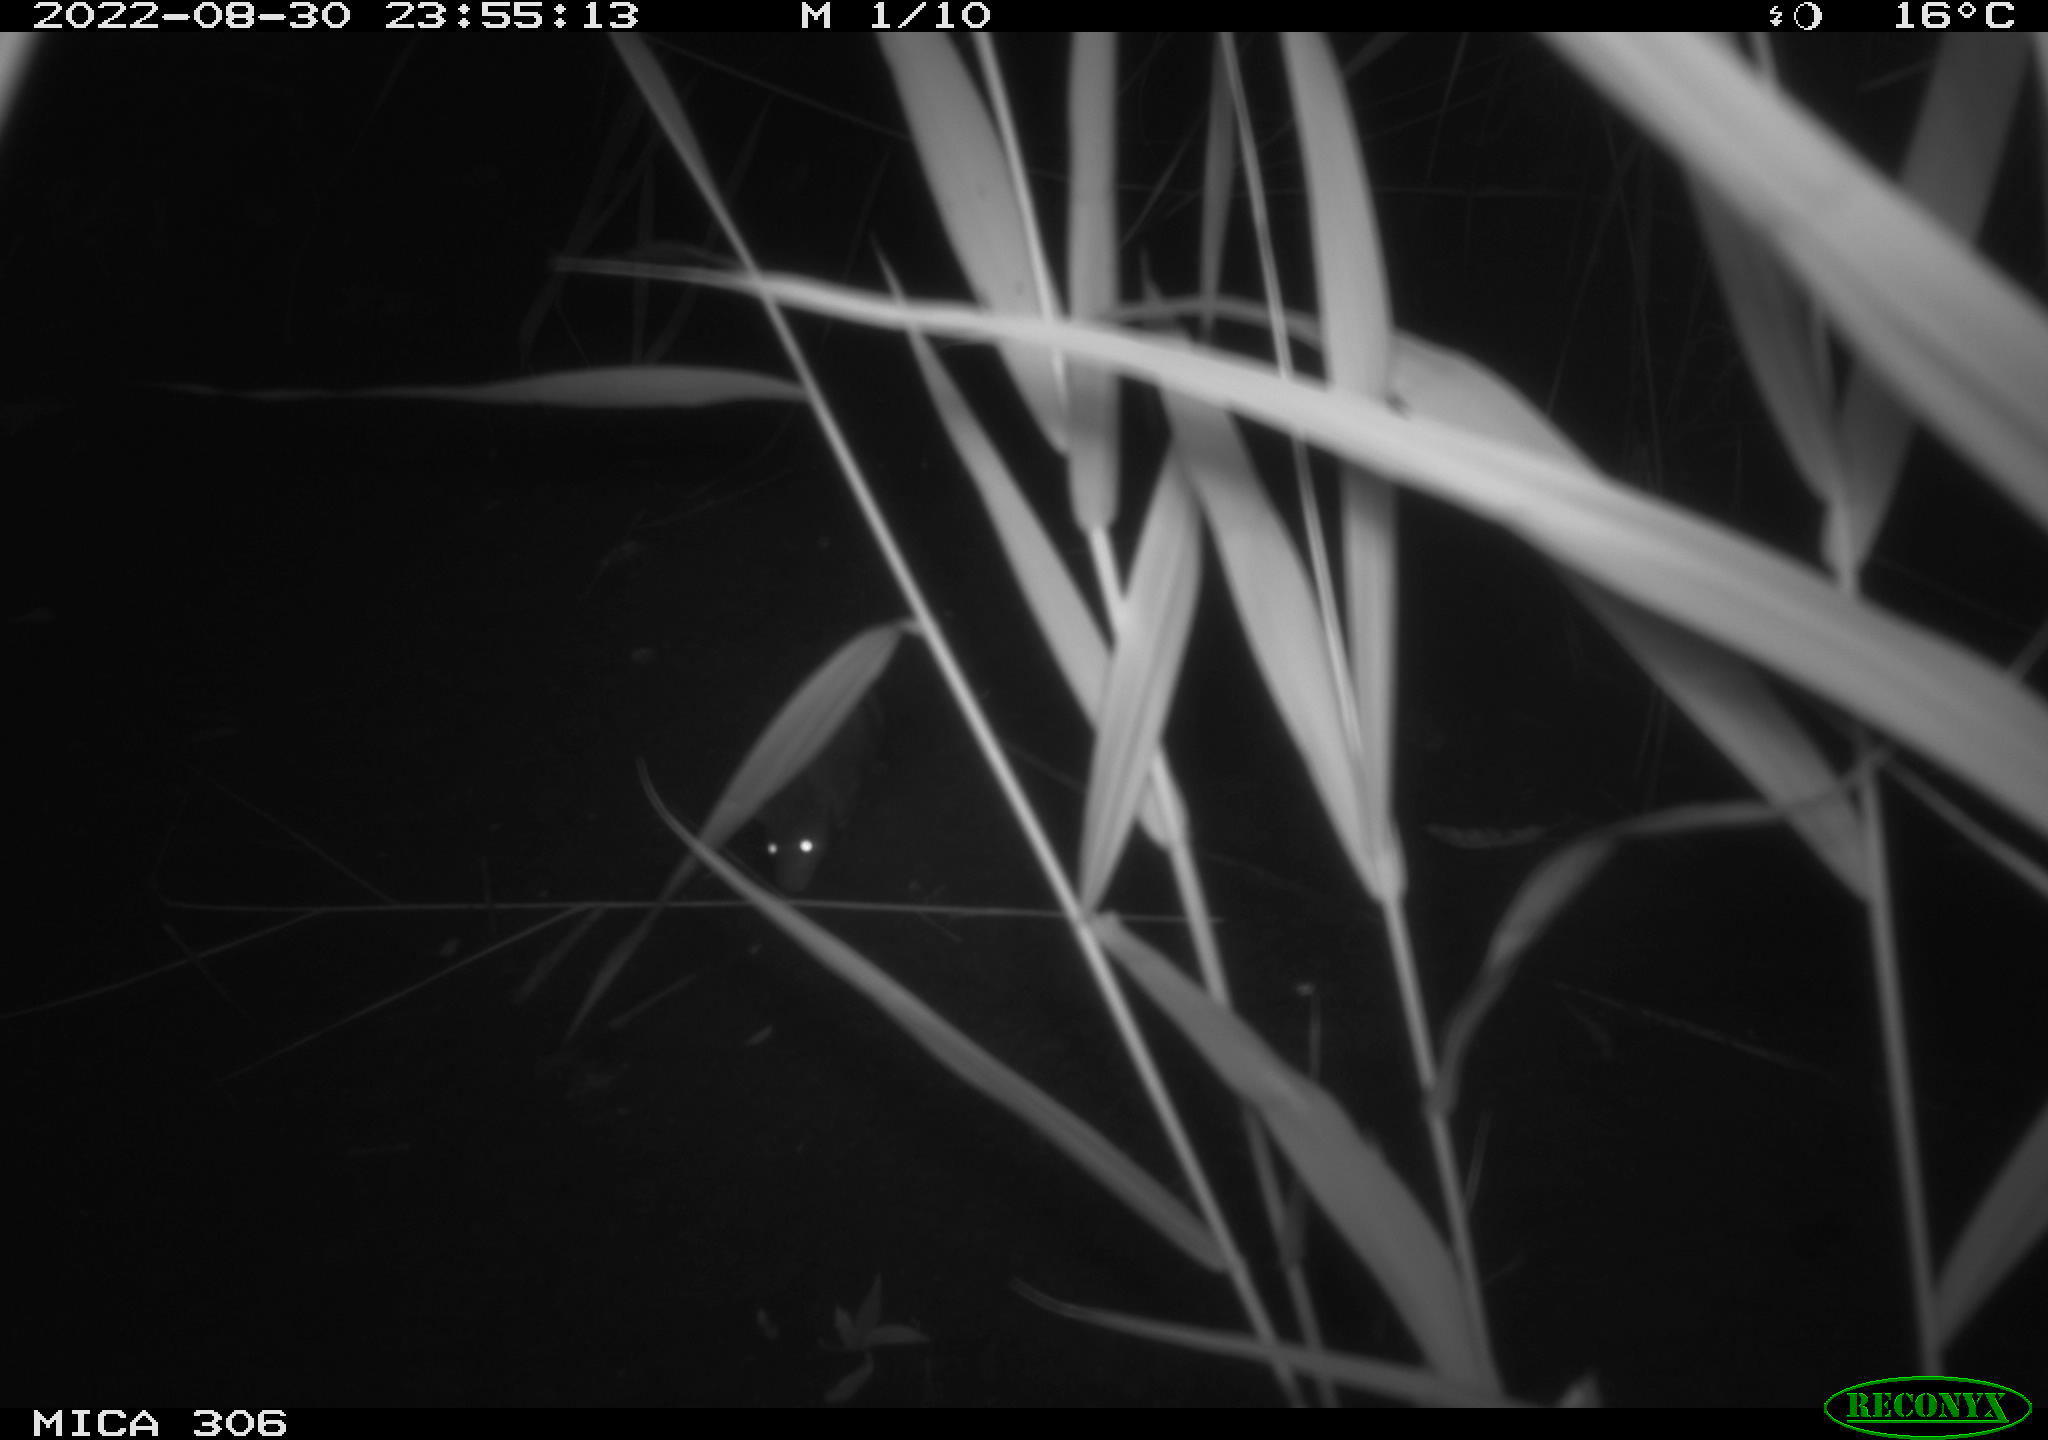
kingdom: Animalia
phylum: Chordata
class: Mammalia
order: Rodentia
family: Muridae
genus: Rattus
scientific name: Rattus norvegicus
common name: Brown rat
